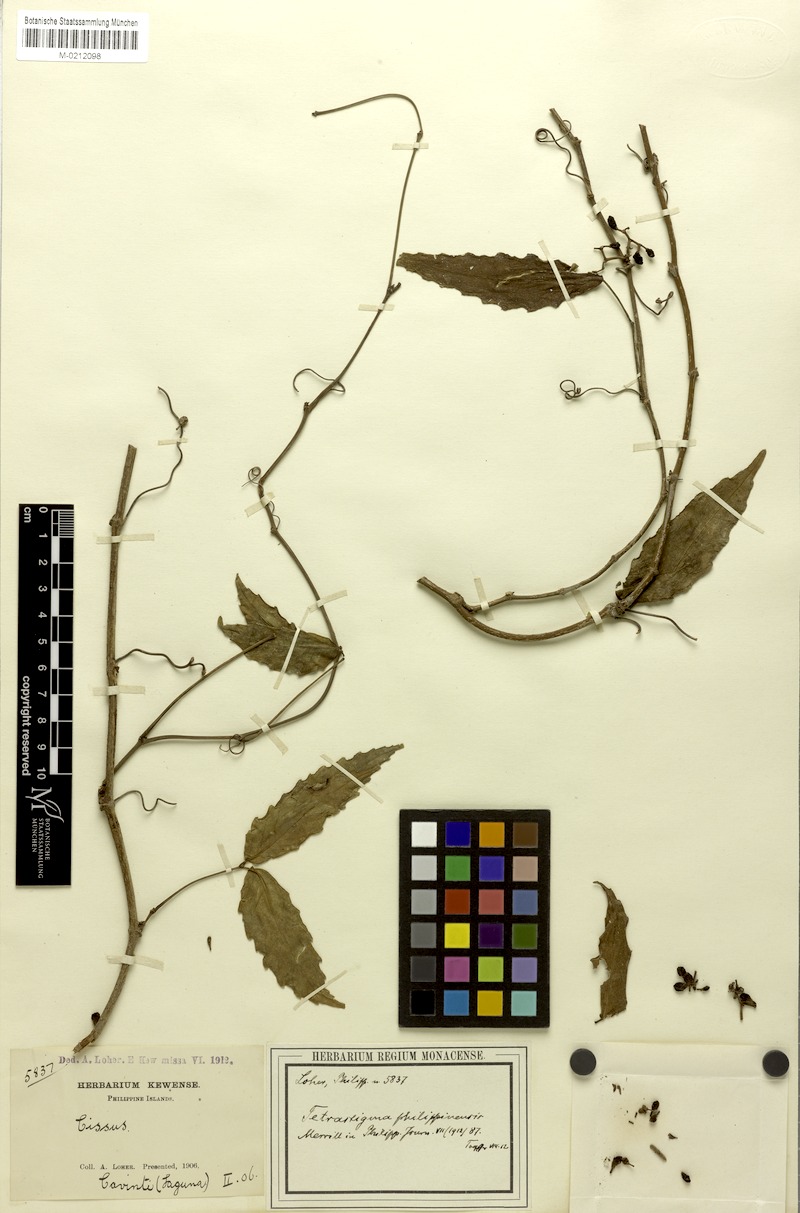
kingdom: Plantae
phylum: Tracheophyta
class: Magnoliopsida
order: Vitales
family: Vitaceae
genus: Tetrastigma
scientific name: Tetrastigma loheri
